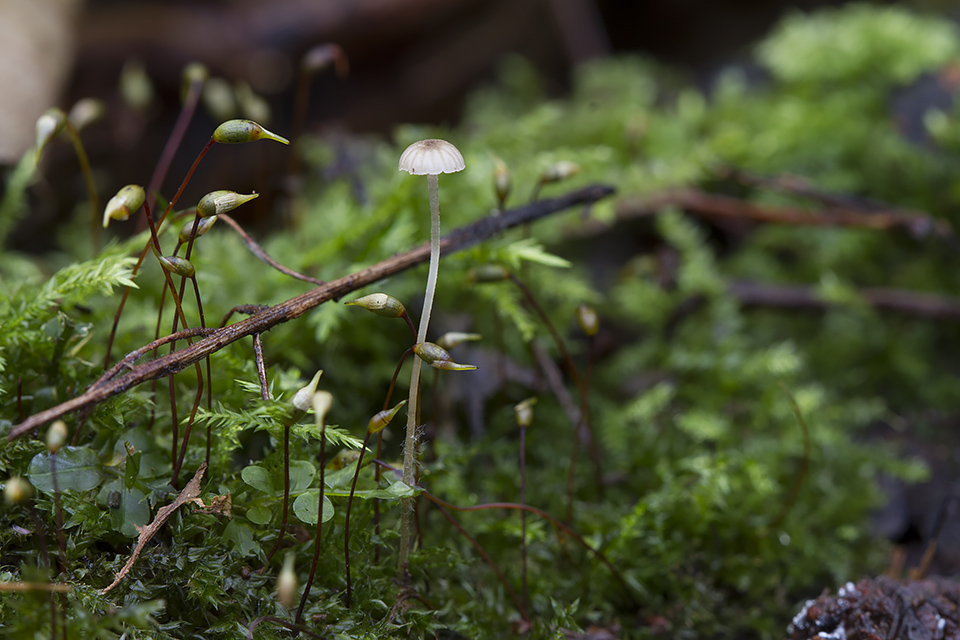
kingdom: Fungi
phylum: Basidiomycota
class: Agaricomycetes
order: Agaricales
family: Porotheleaceae
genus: Phloeomana
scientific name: Phloeomana speirea
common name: kvist-huesvamp
